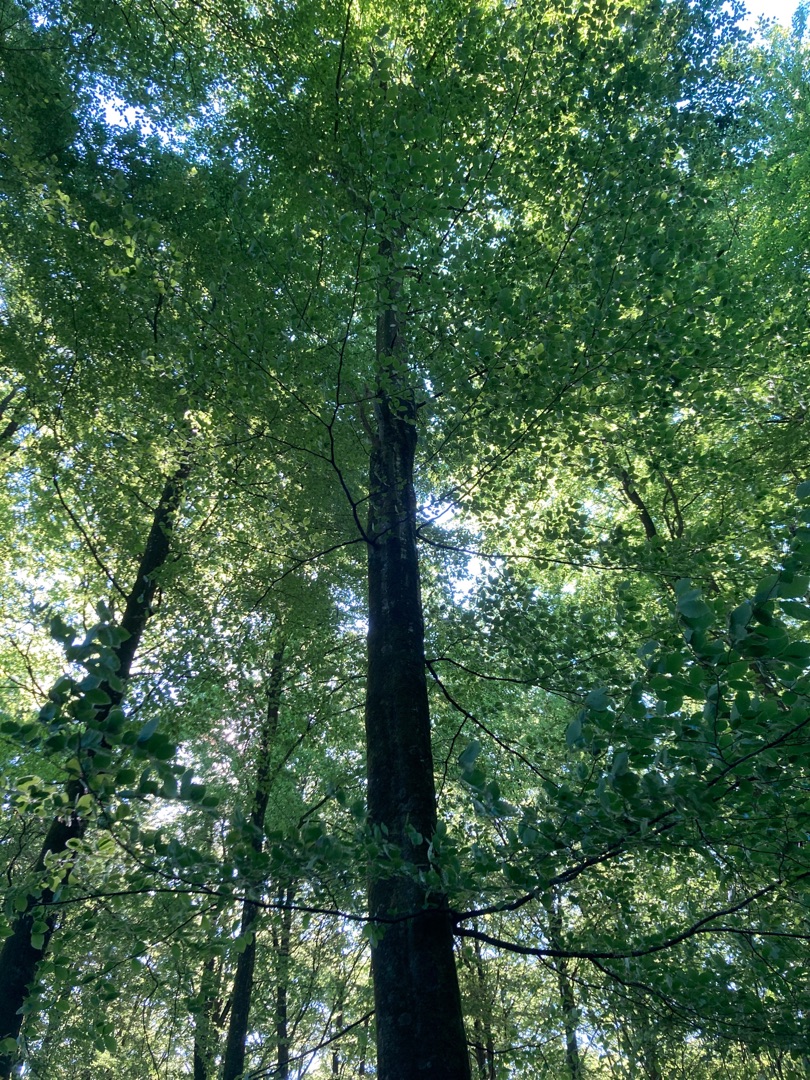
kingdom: Plantae
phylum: Tracheophyta
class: Magnoliopsida
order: Fagales
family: Fagaceae
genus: Fagus
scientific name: Fagus sylvatica
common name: Bøg
